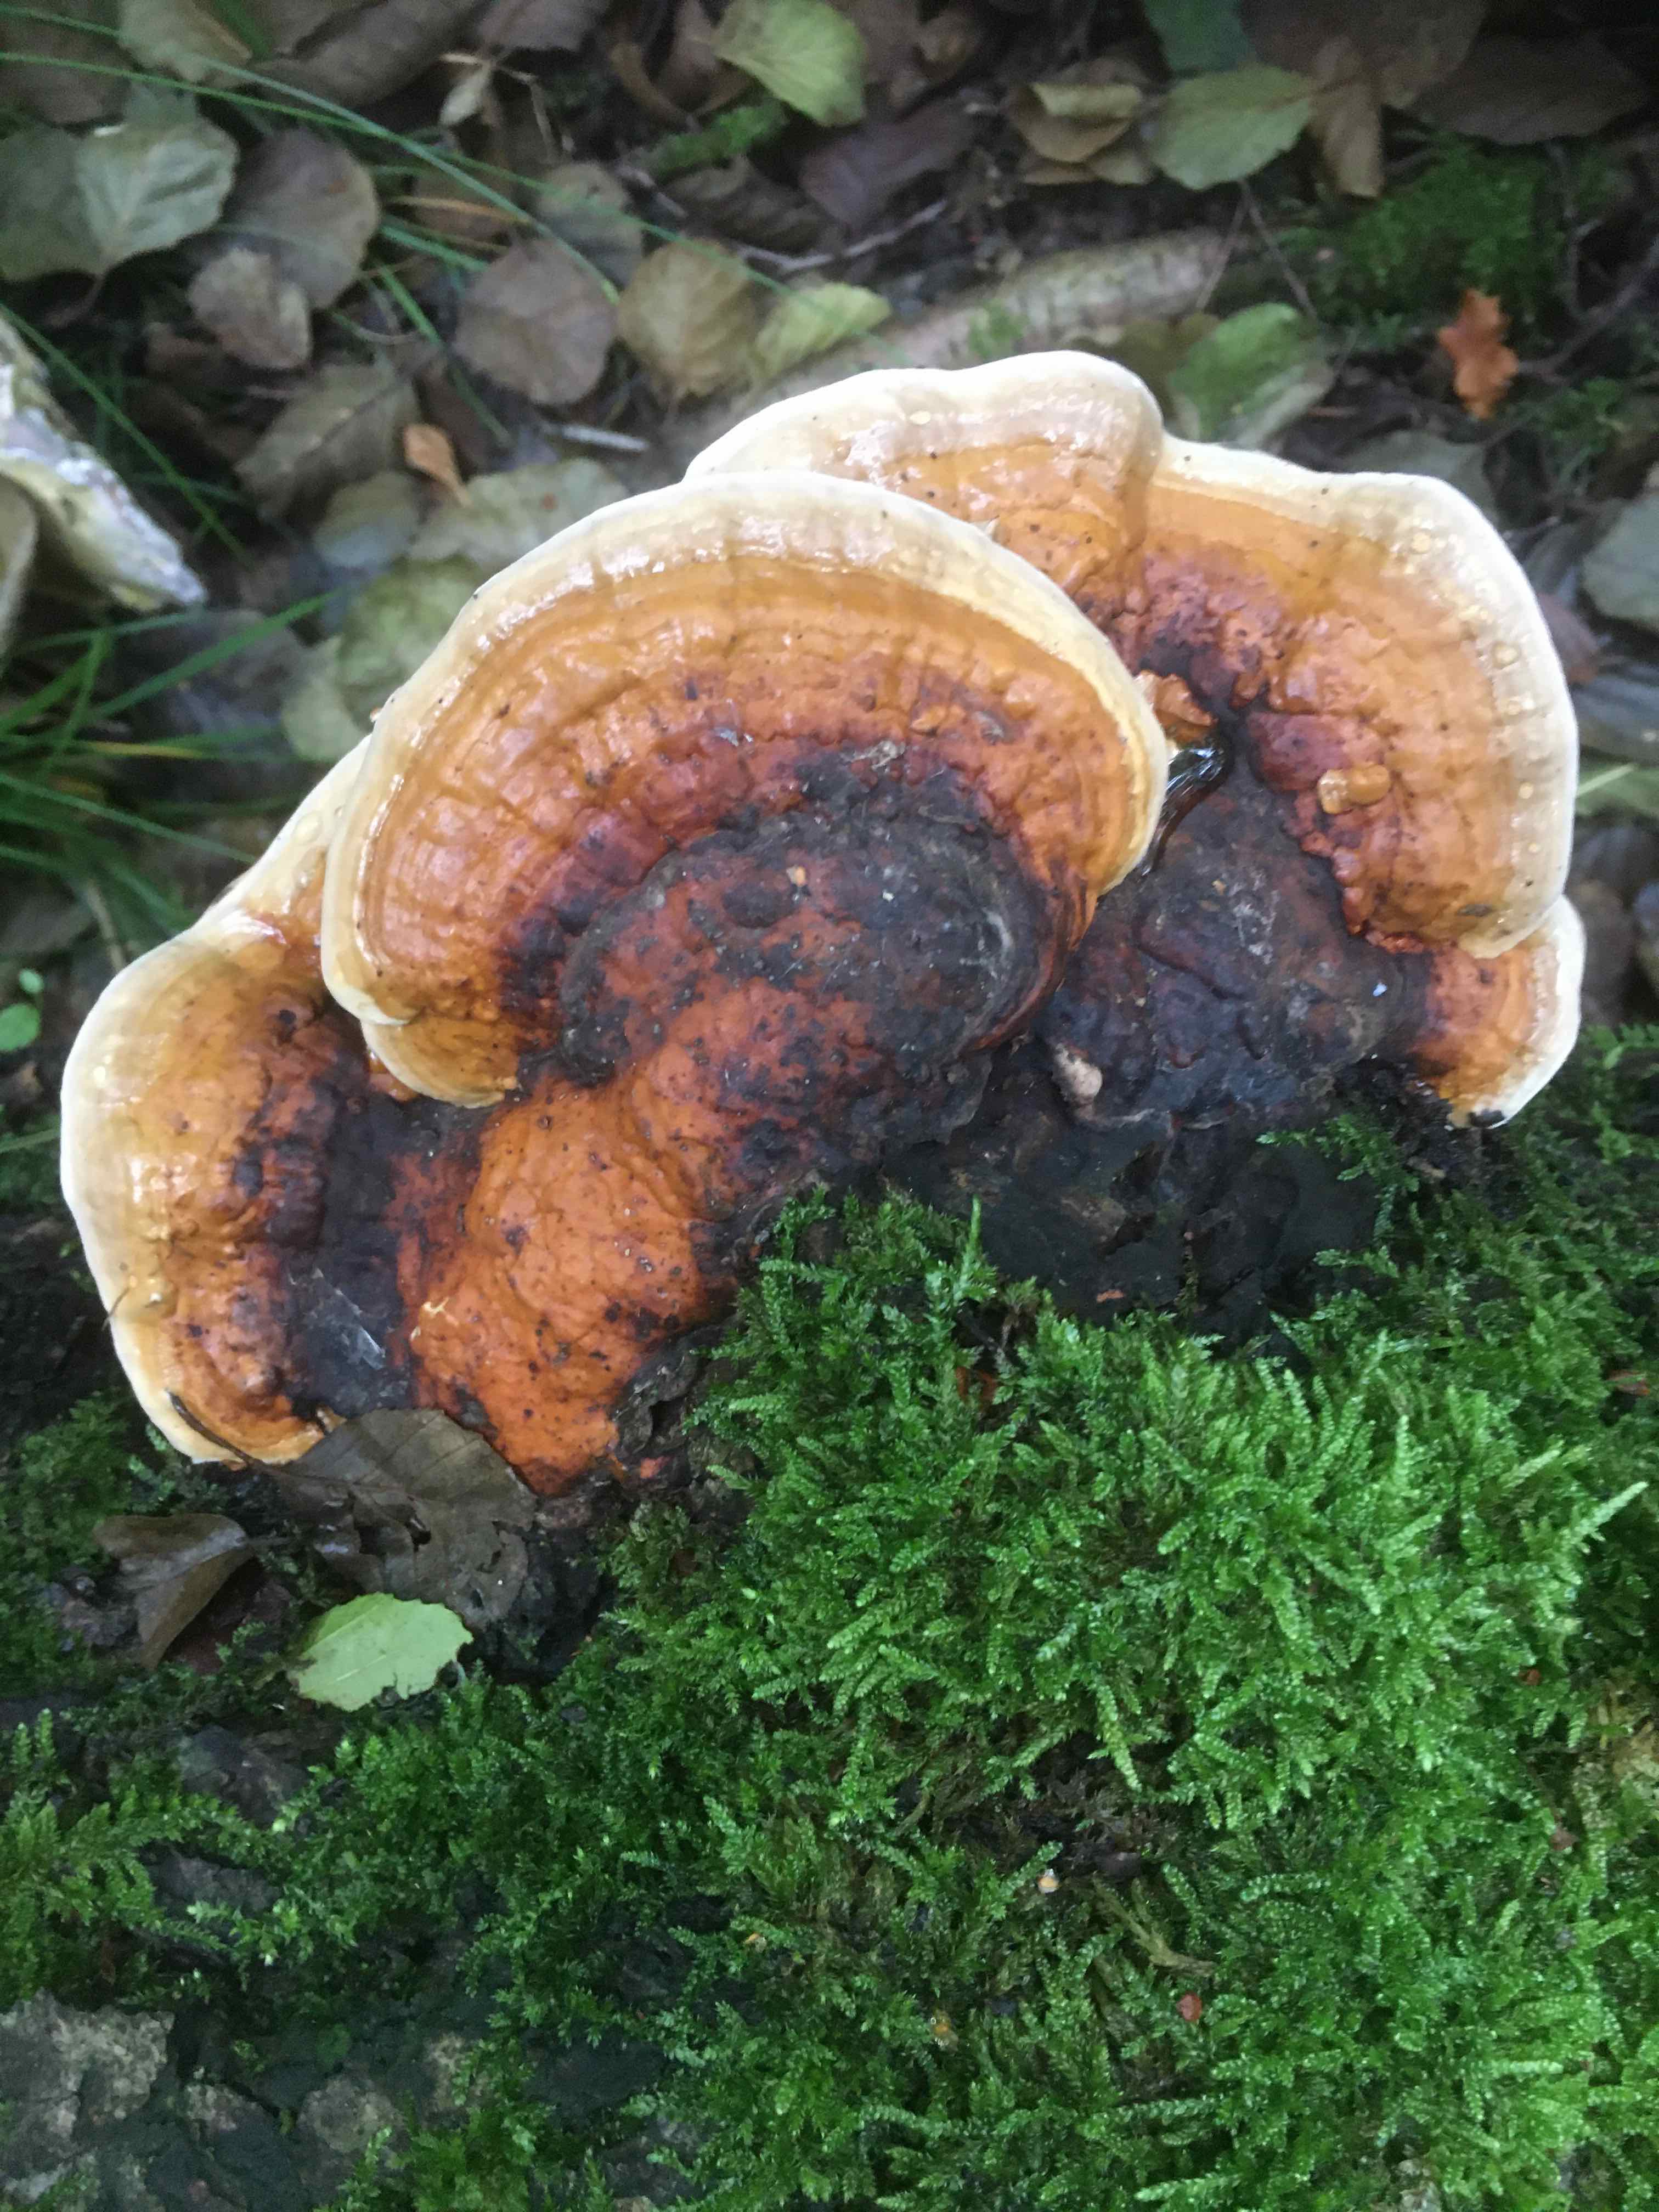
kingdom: Fungi
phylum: Basidiomycota
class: Agaricomycetes
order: Polyporales
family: Fomitopsidaceae
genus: Fomitopsis
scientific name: Fomitopsis pinicola
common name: randbæltet hovporesvamp
